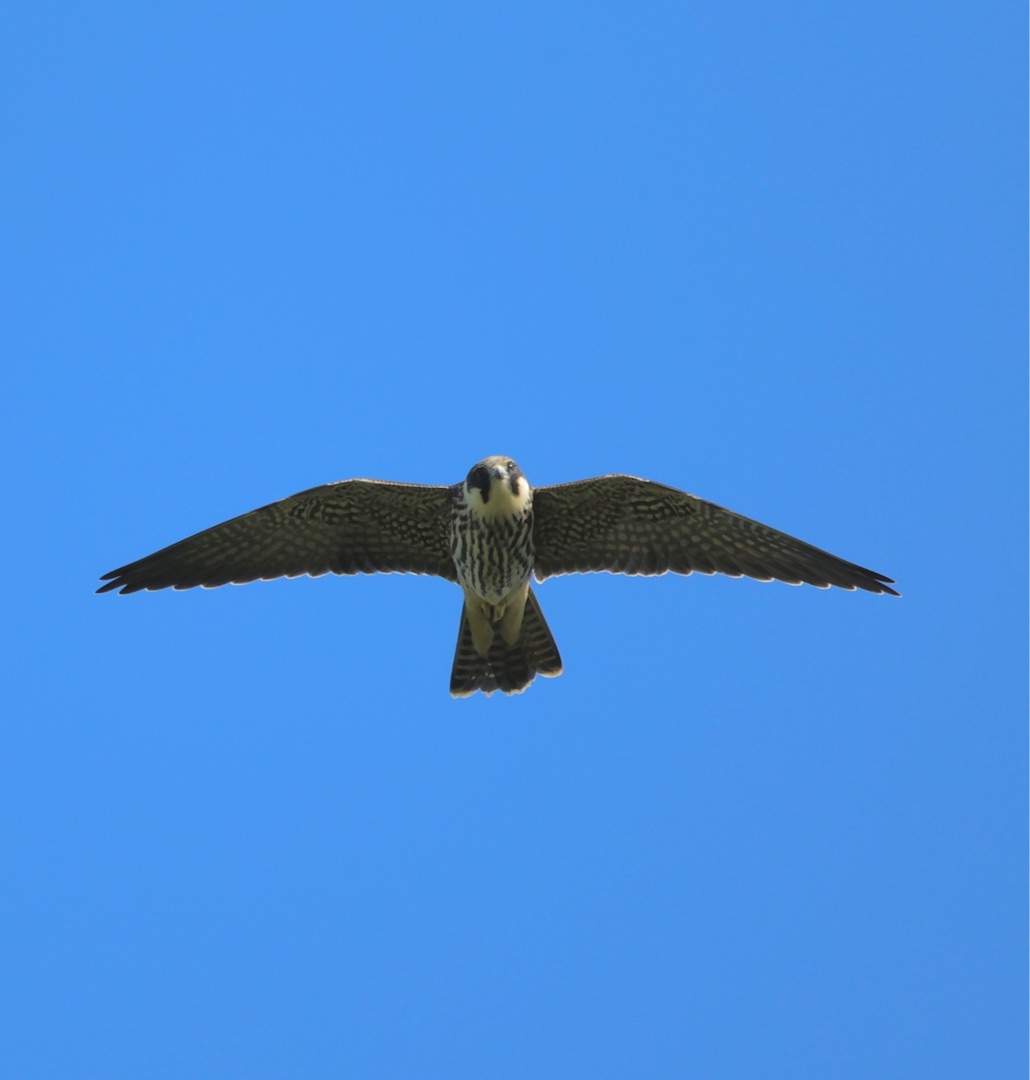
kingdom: Animalia
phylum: Chordata
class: Aves
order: Falconiformes
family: Falconidae
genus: Falco
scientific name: Falco subbuteo
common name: Lærkefalk
